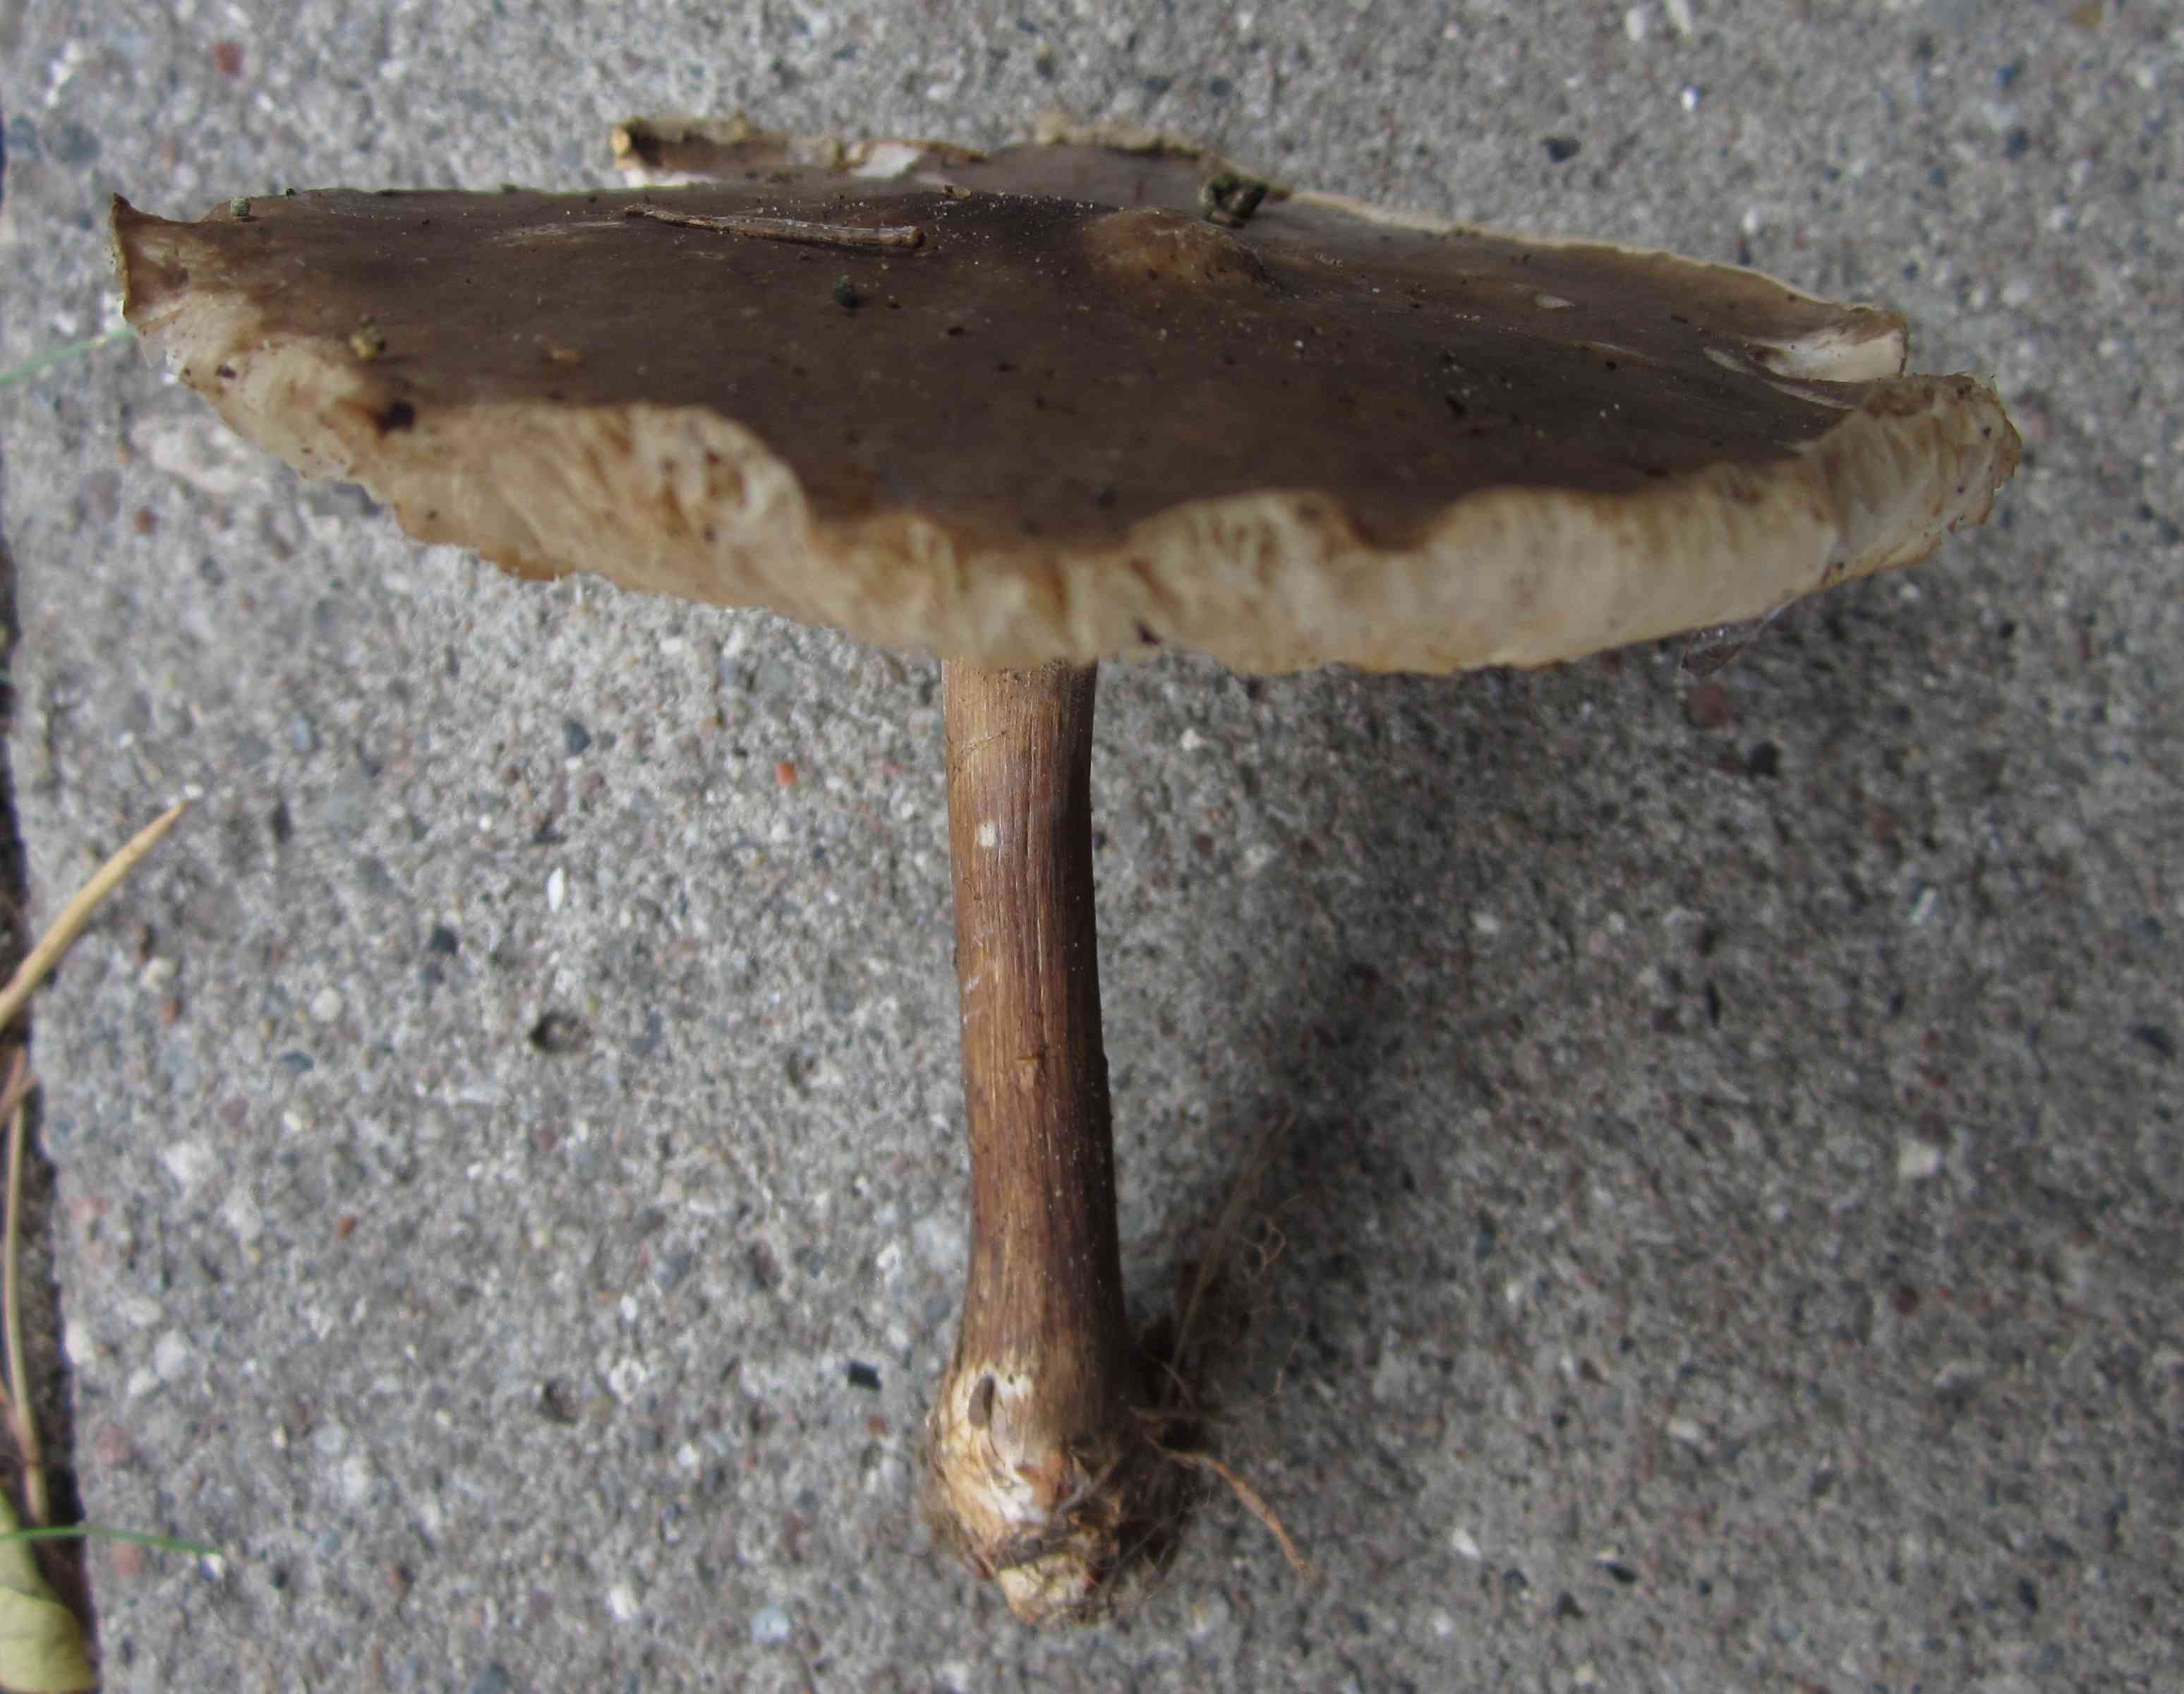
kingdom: Fungi
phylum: Basidiomycota
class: Agaricomycetes
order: Agaricales
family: Tricholomataceae
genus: Melanoleuca
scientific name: Melanoleuca grammopodia
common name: stribestokket munkehat
